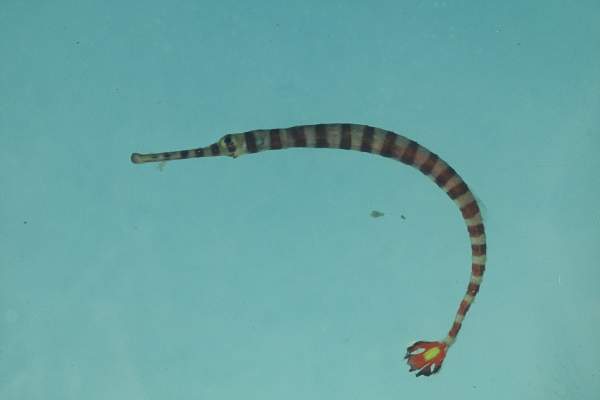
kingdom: Animalia
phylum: Chordata
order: Syngnathiformes
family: Syngnathidae
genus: Dunckerocampus
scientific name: Dunckerocampus chapmani
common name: Glowtail pipefish
